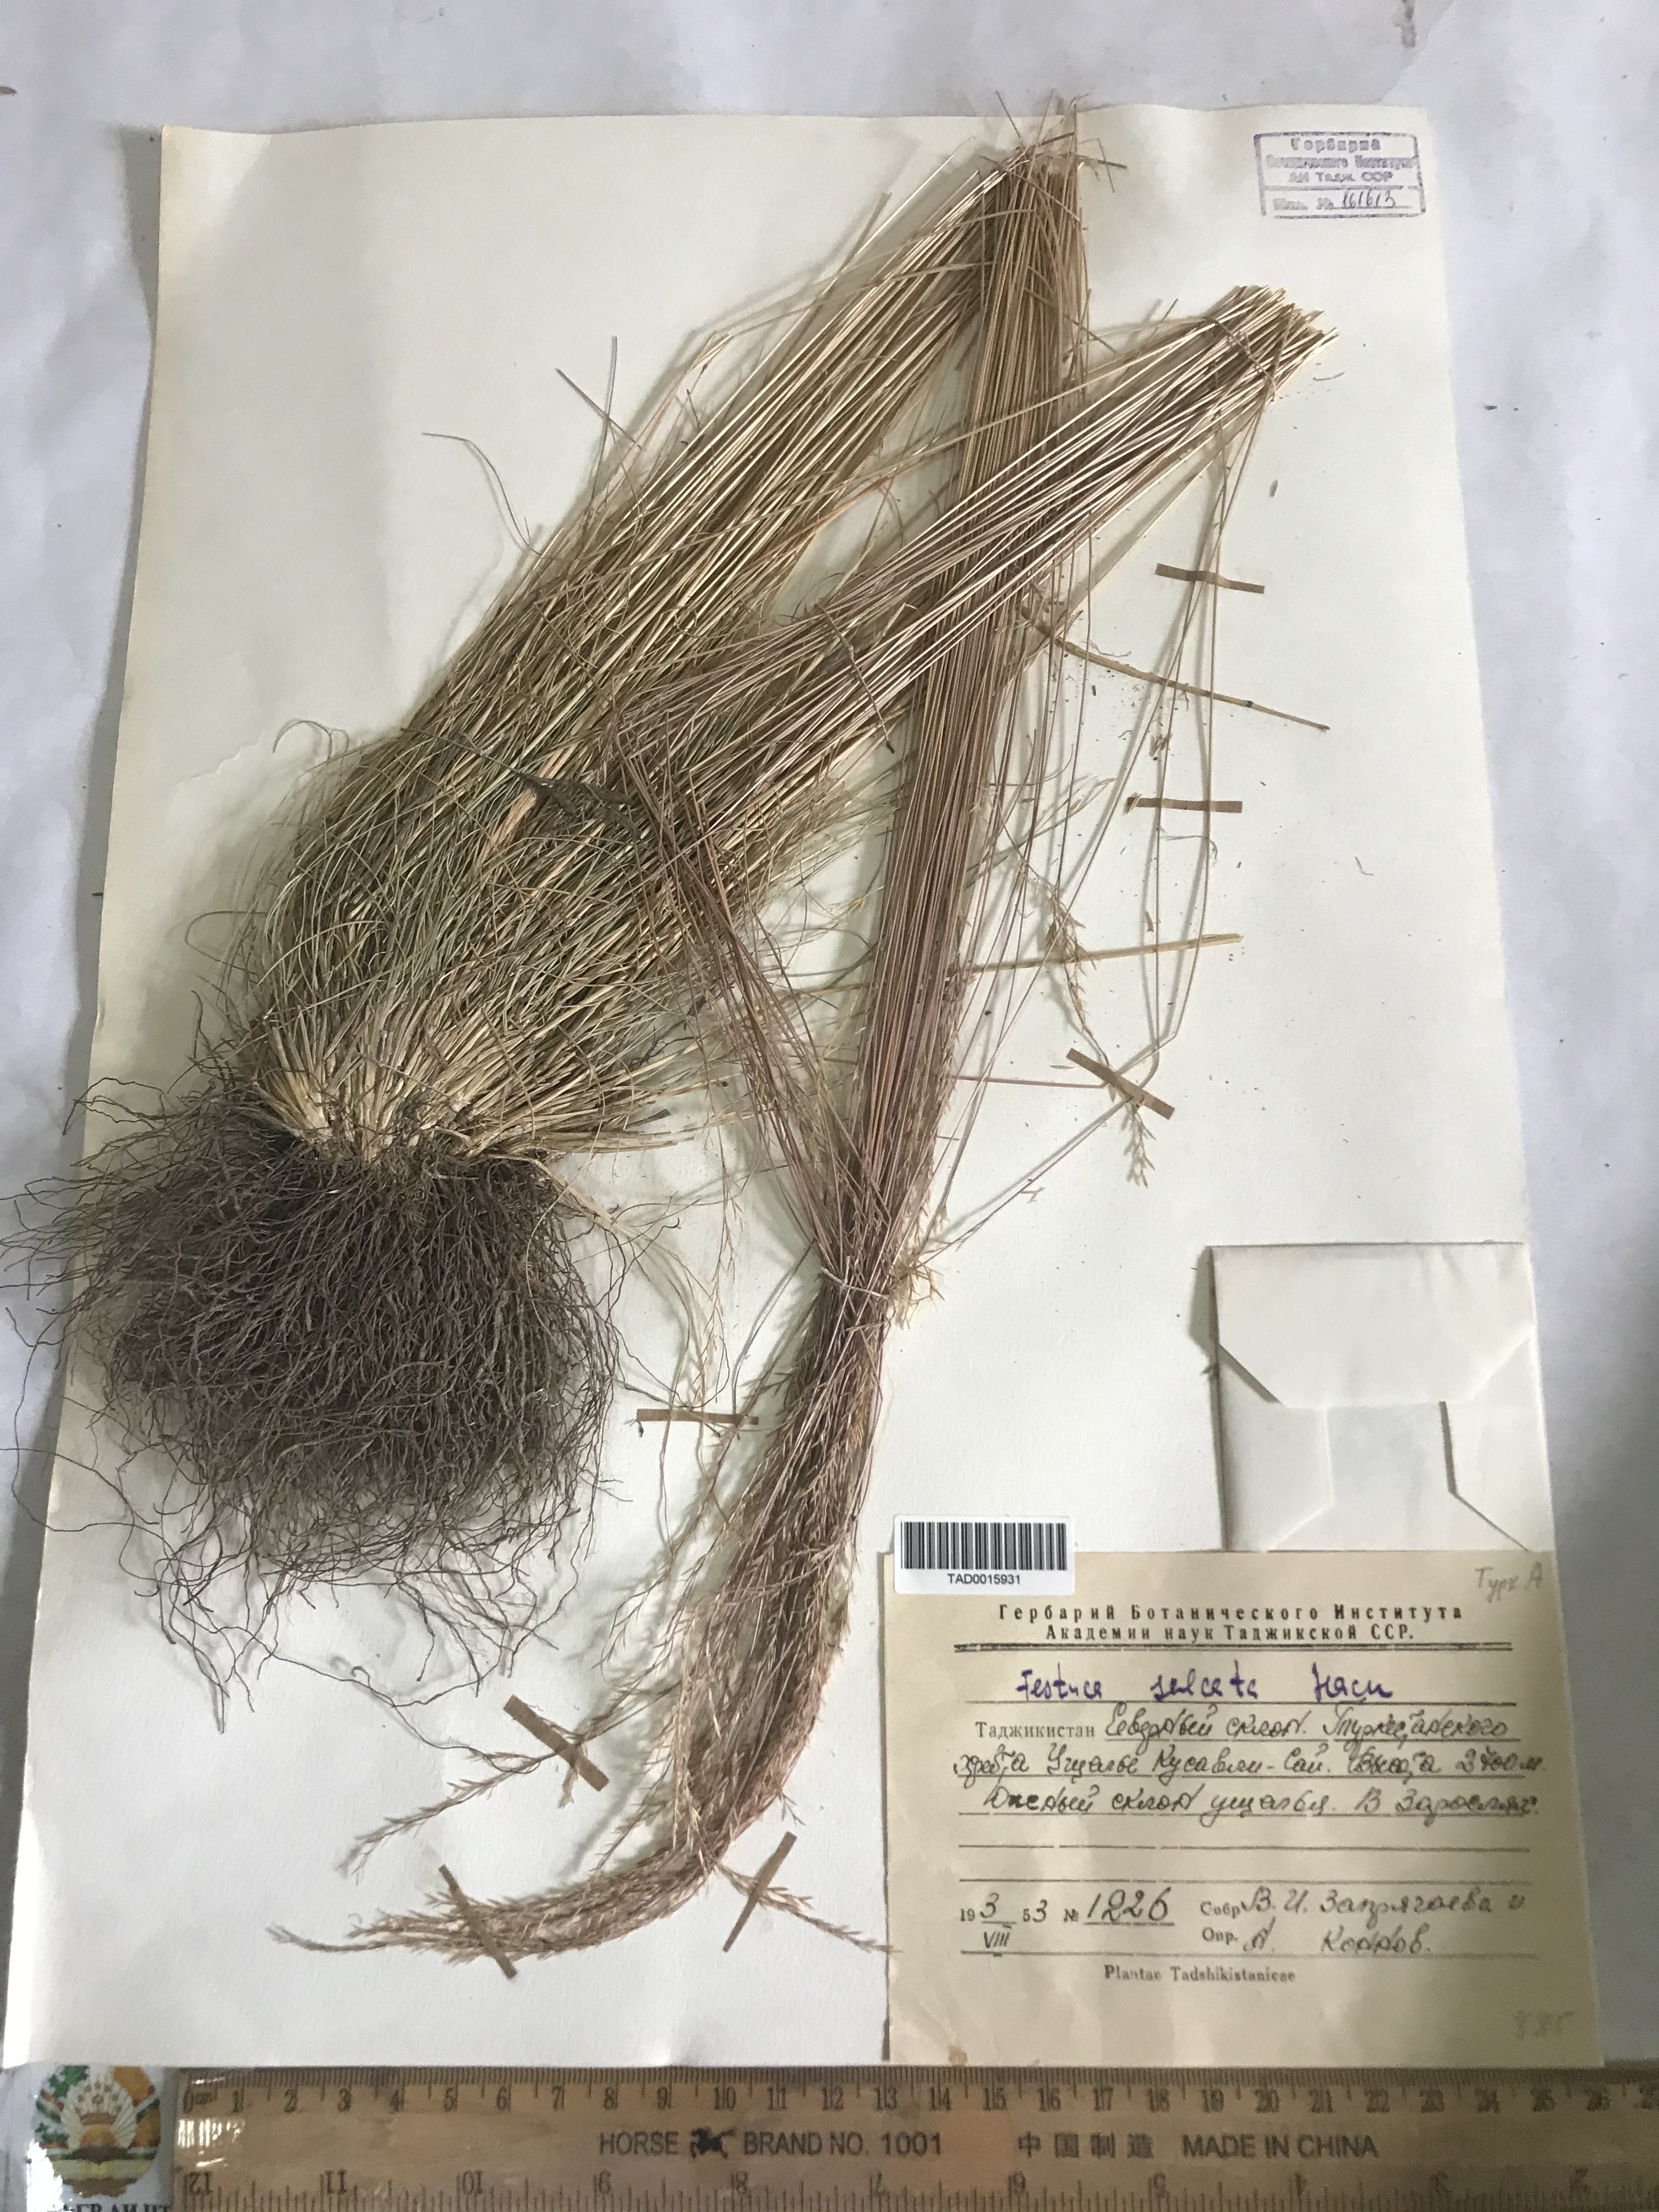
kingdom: Plantae
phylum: Tracheophyta
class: Liliopsida
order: Poales
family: Poaceae
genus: Festuca
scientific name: Festuca sulcata
